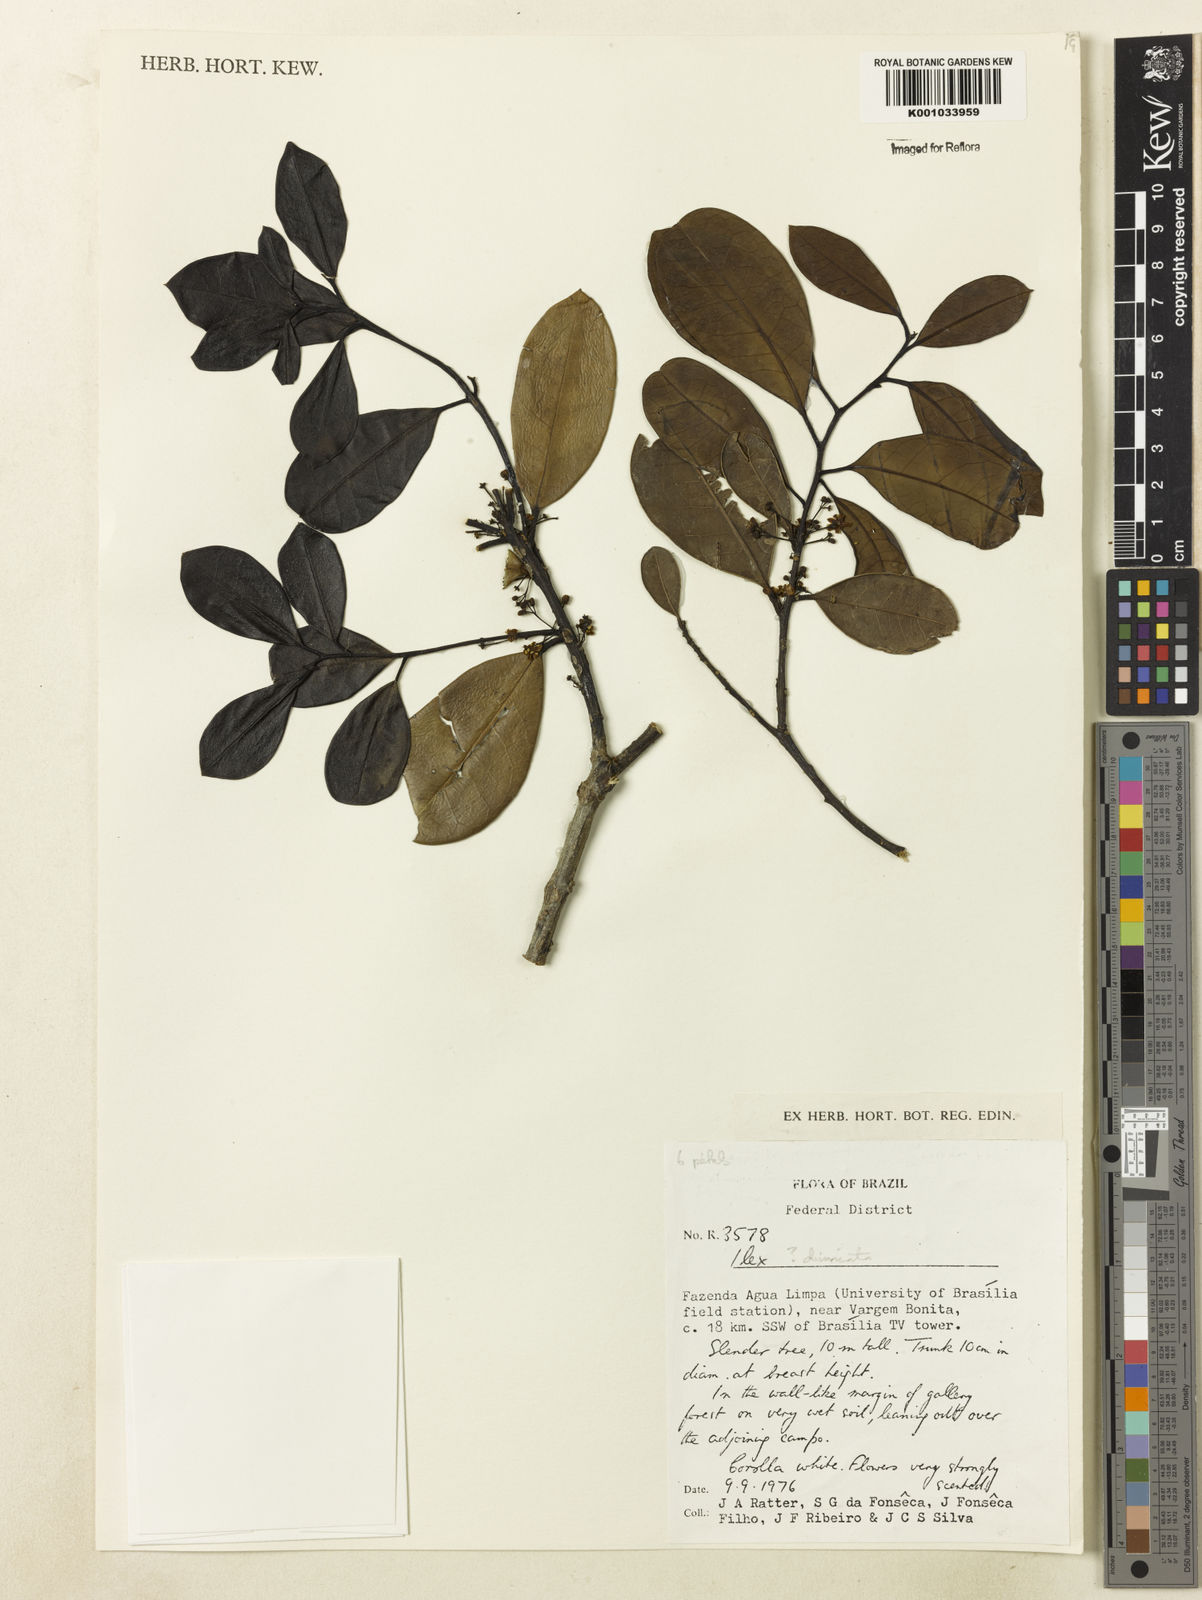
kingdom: Plantae
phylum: Tracheophyta
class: Magnoliopsida
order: Aquifoliales
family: Aquifoliaceae
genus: Ilex
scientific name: Ilex divaricata
